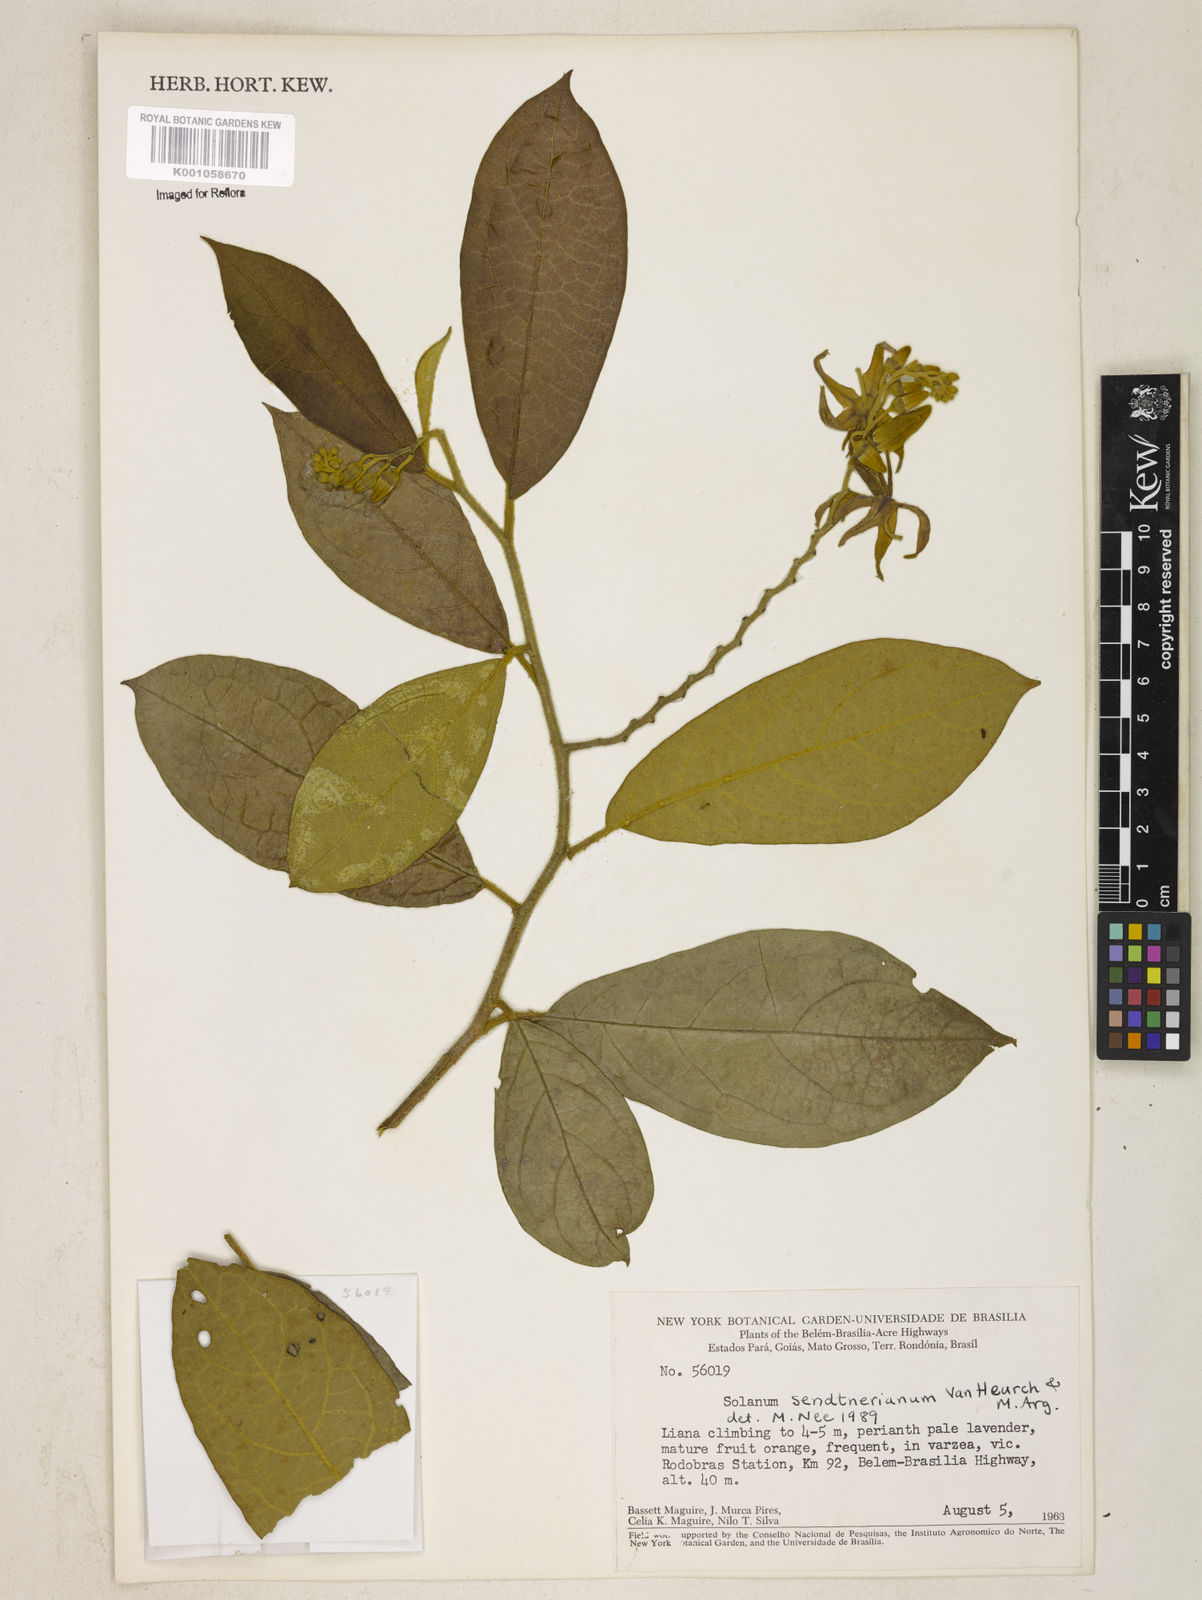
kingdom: Plantae
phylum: Tracheophyta
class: Magnoliopsida
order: Solanales
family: Solanaceae
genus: Solanum
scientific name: Solanum
